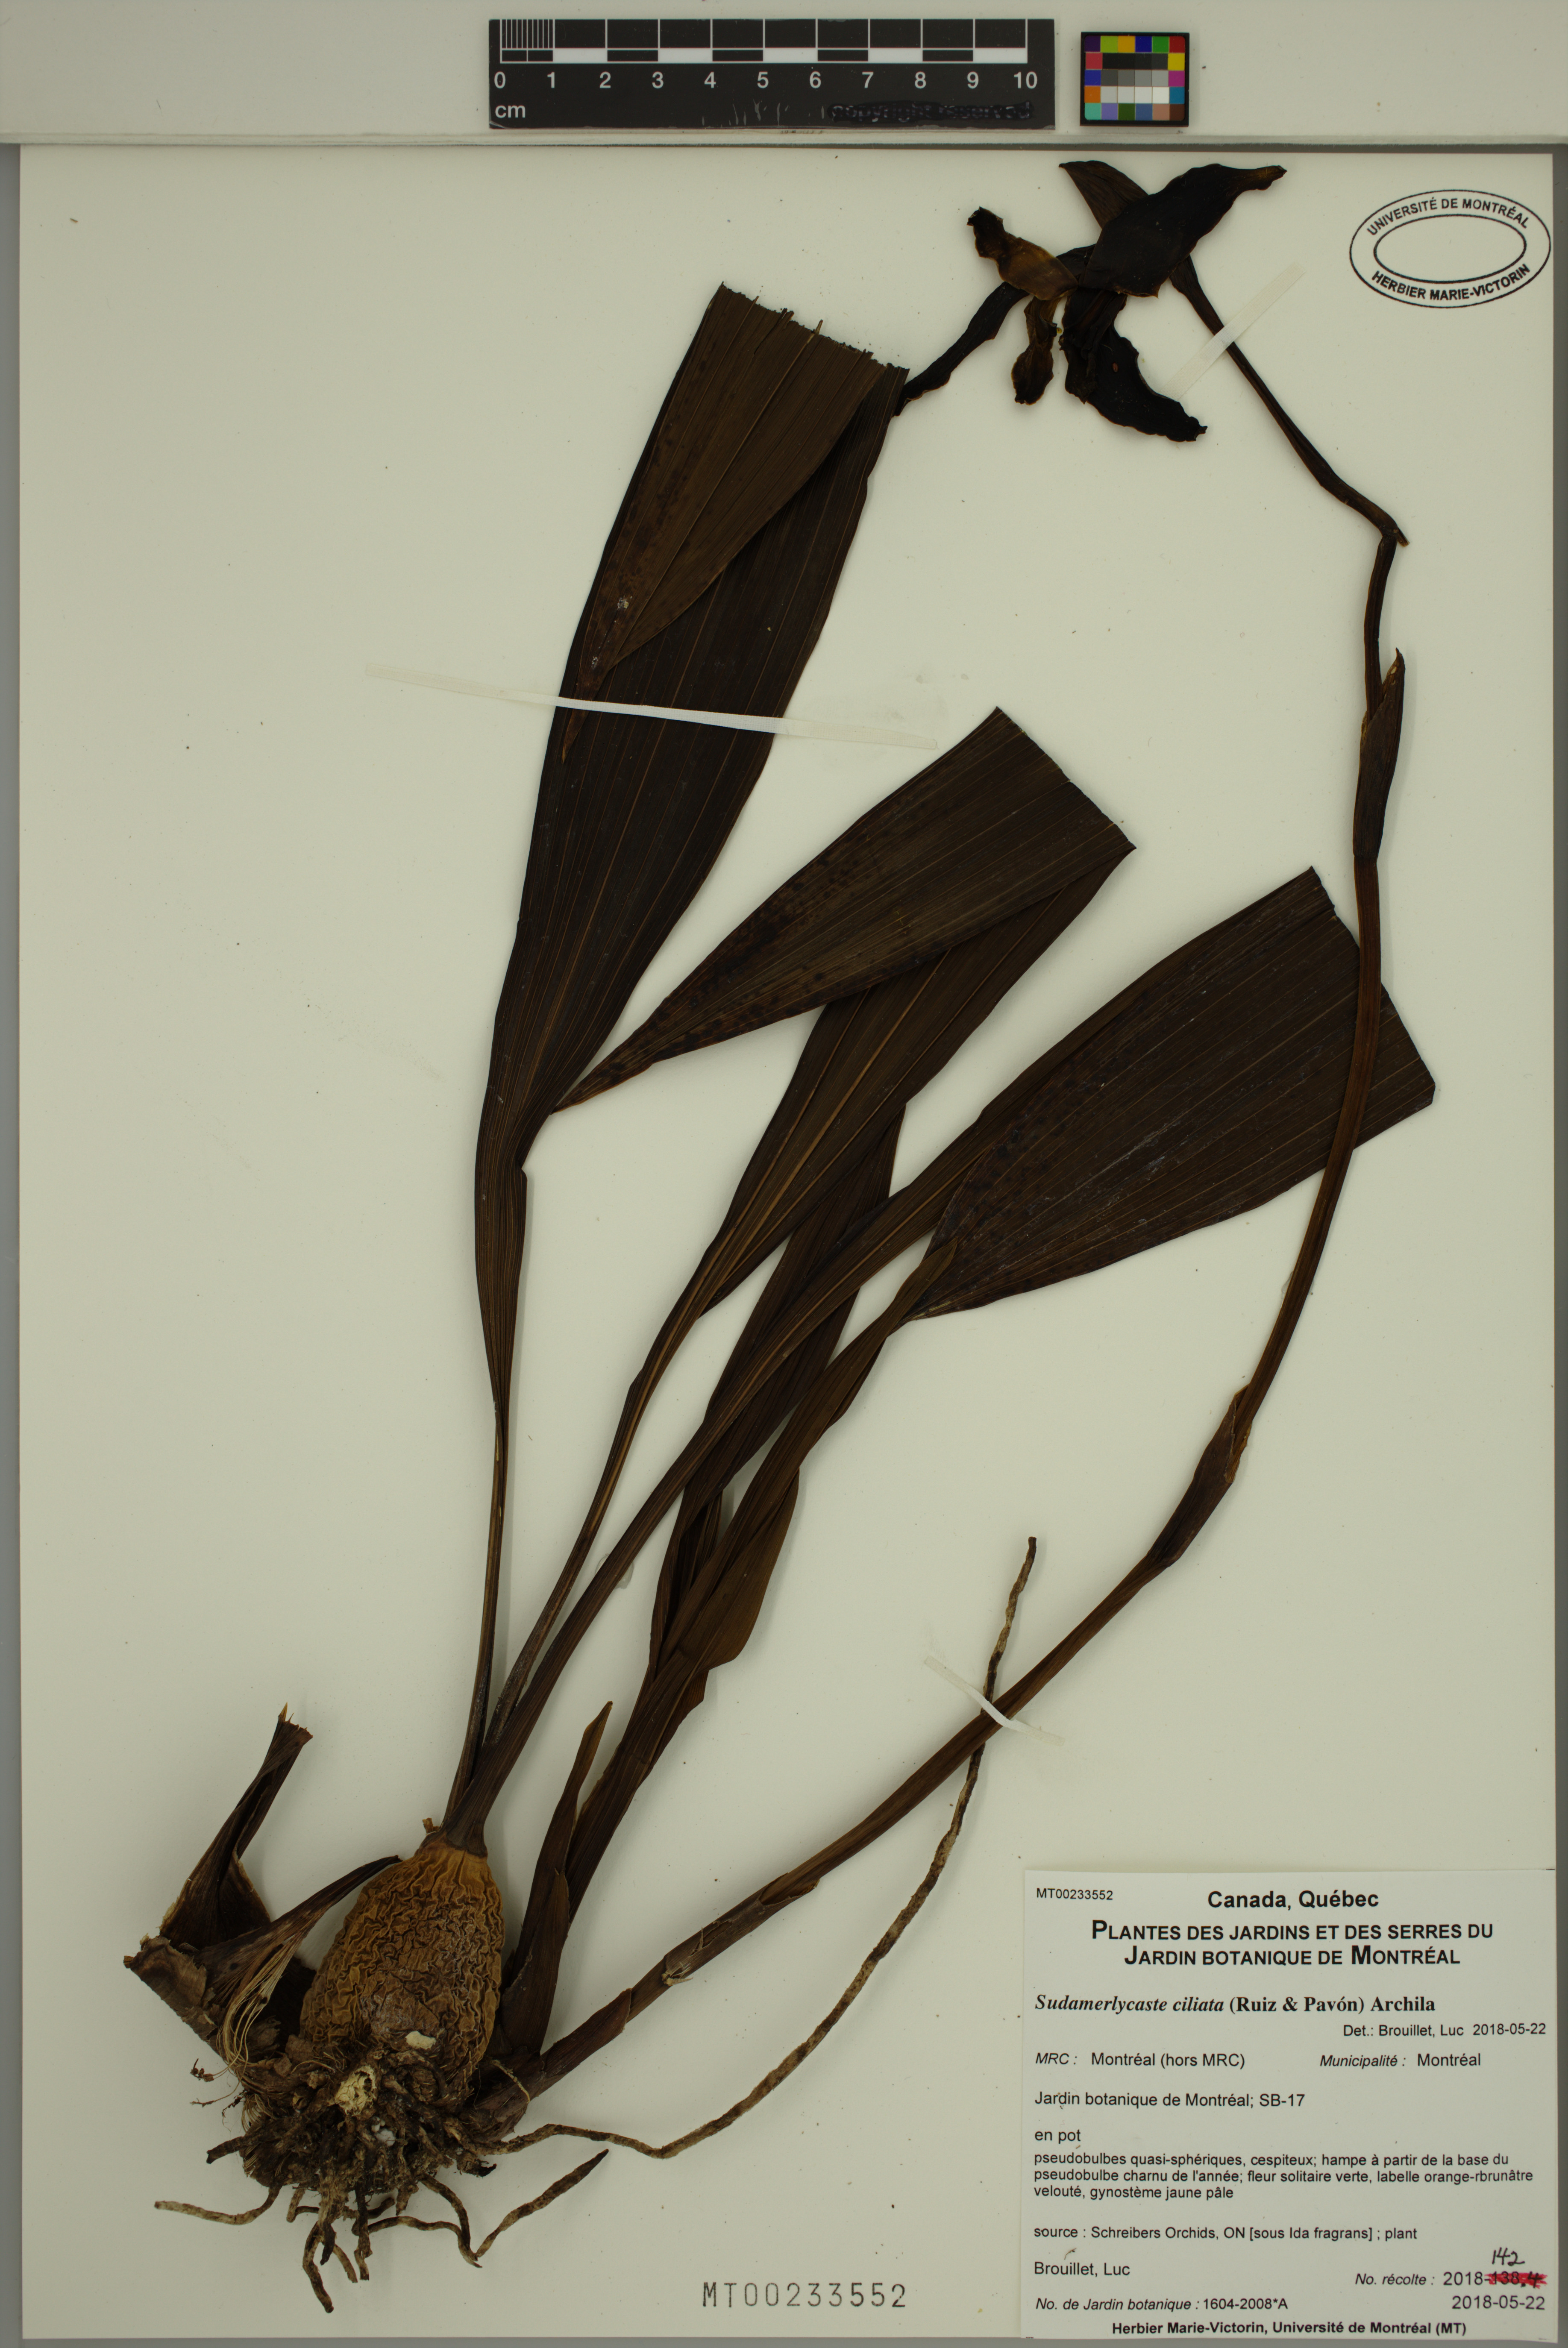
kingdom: Plantae
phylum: Tracheophyta
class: Liliopsida
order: Asparagales
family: Orchidaceae
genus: Ida
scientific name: Ida ciliata
